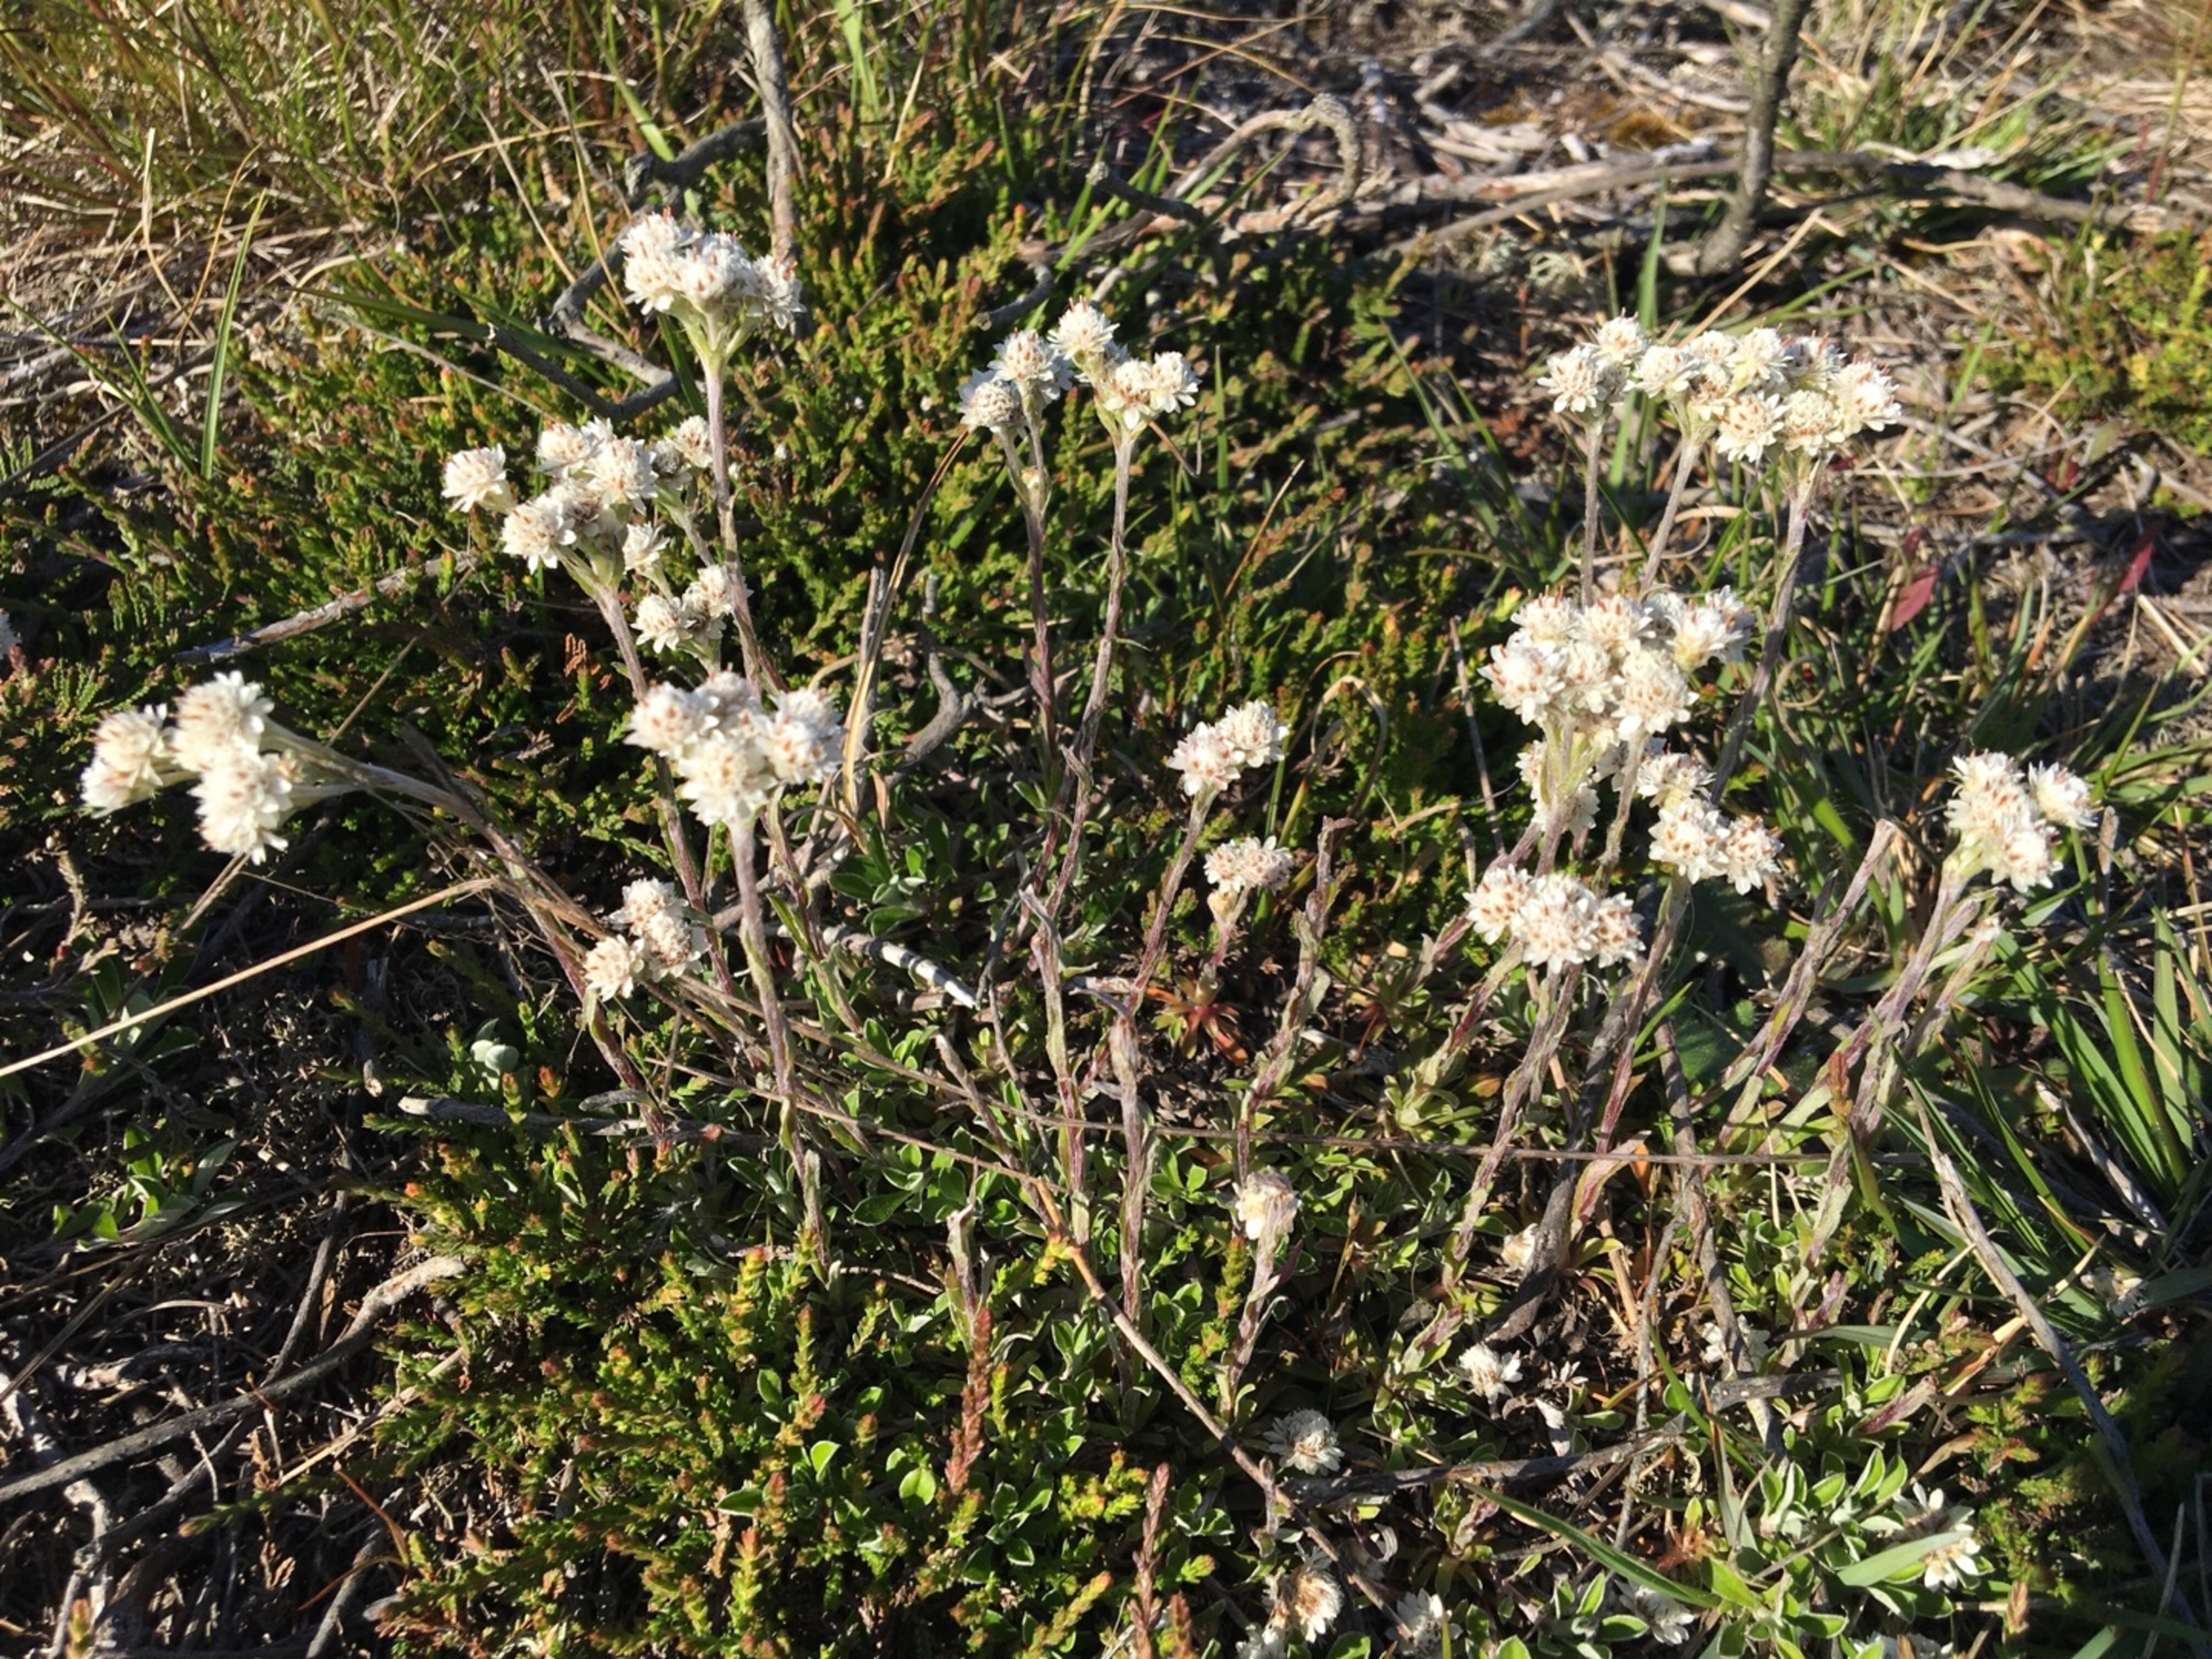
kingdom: Plantae
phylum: Tracheophyta
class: Magnoliopsida
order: Asterales
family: Asteraceae
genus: Antennaria
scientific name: Antennaria dioica
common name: Kattefod
